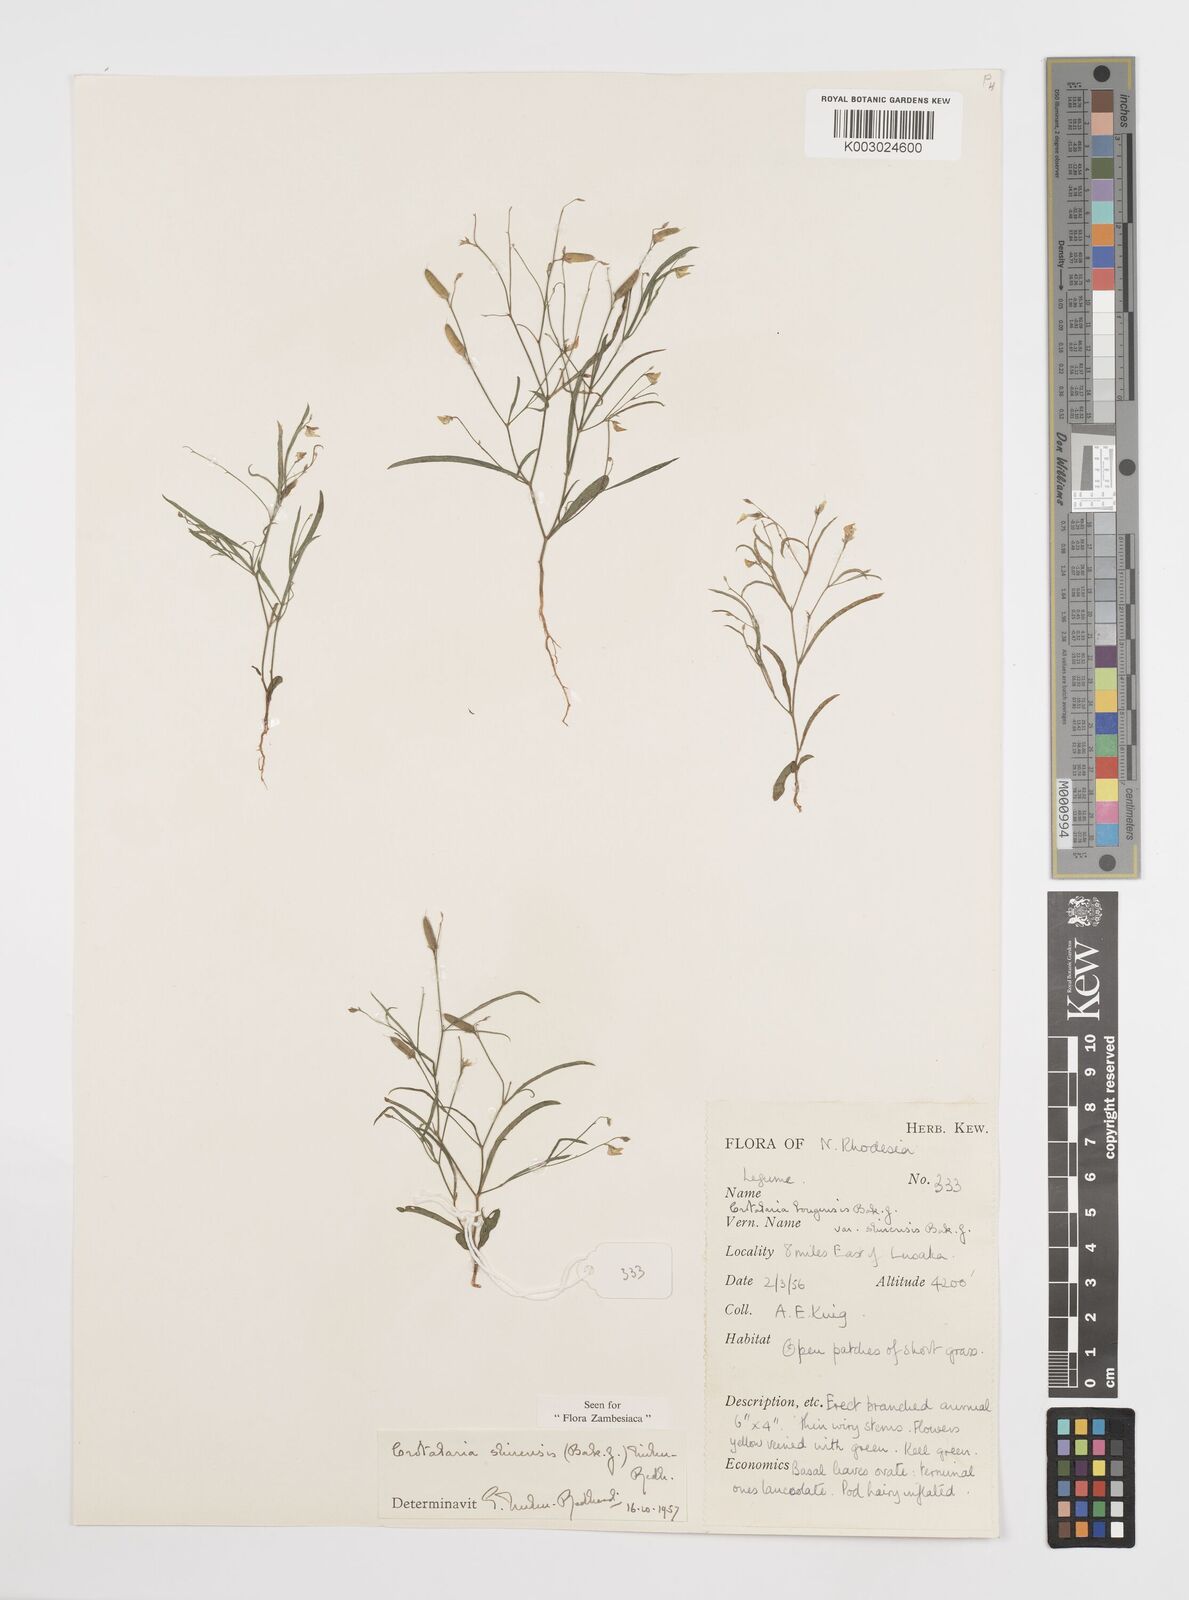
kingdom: Plantae
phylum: Tracheophyta
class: Magnoliopsida
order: Fabales
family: Fabaceae
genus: Crotalaria
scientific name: Crotalaria shirensis
